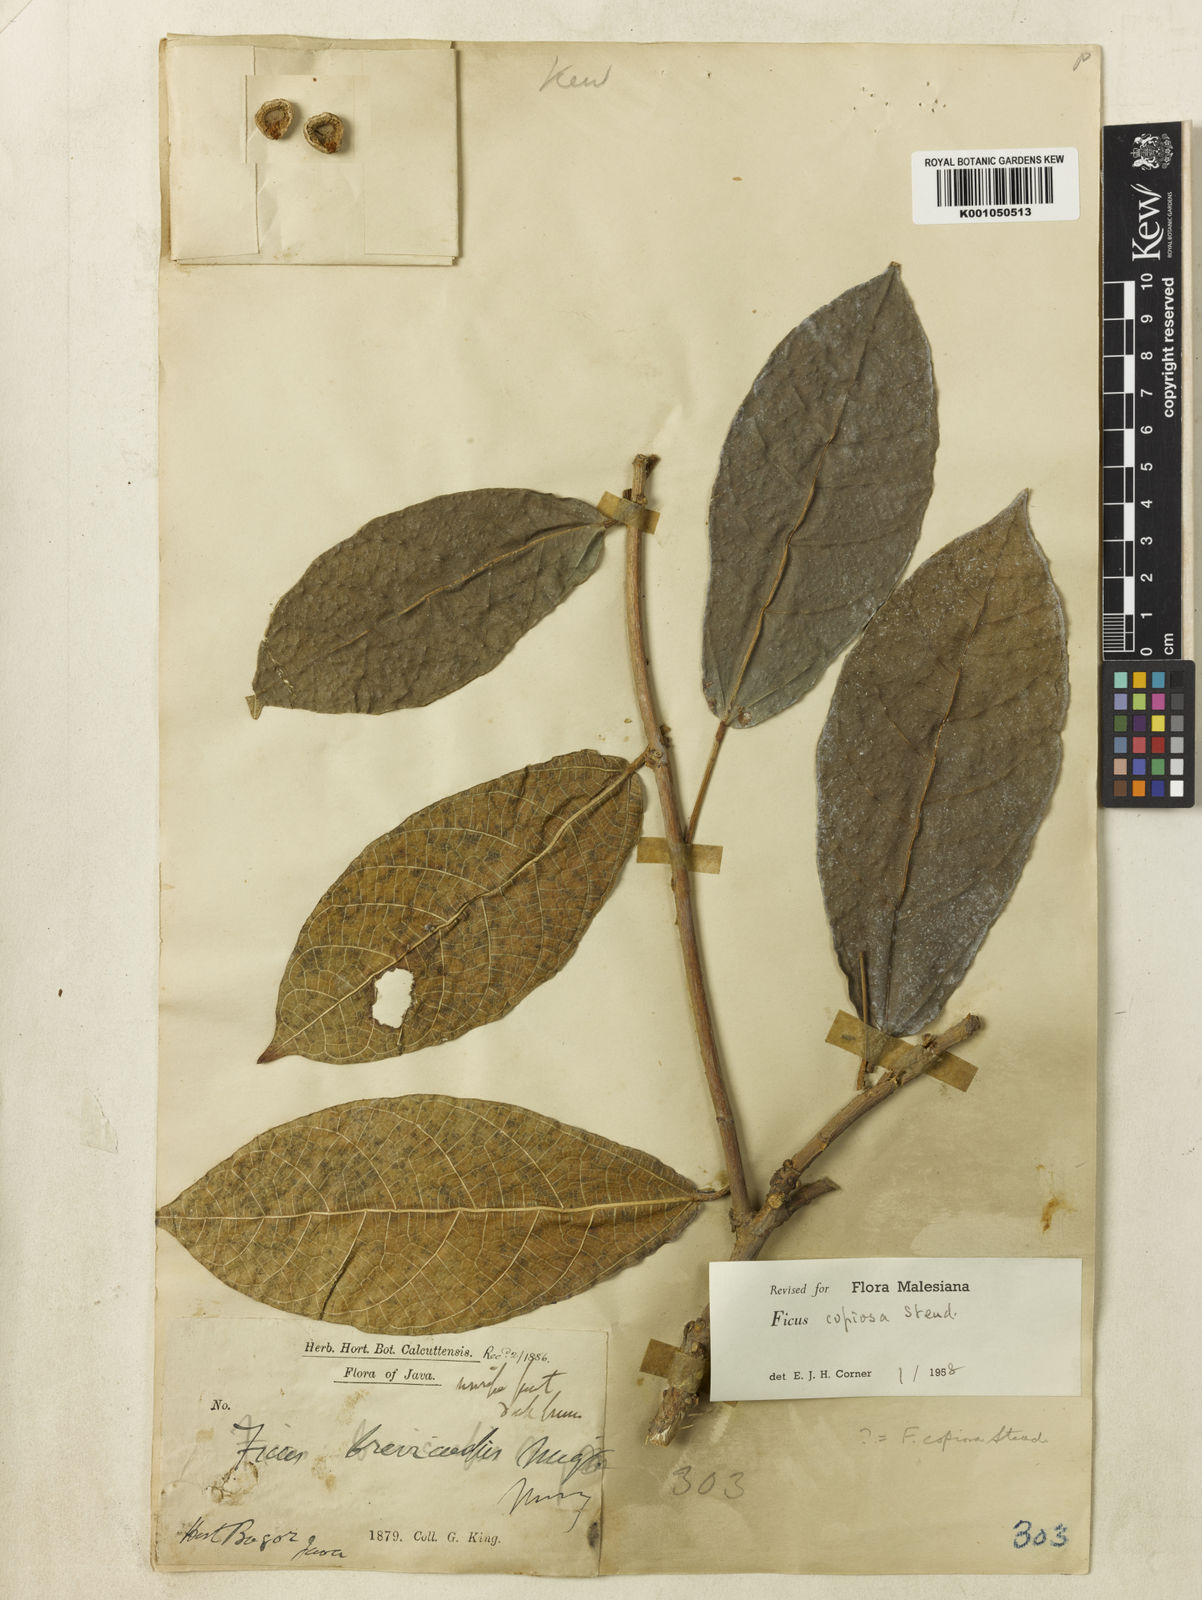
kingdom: Plantae
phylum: Tracheophyta
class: Magnoliopsida
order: Rosales
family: Moraceae
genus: Ficus
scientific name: Ficus copiosa
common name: Plentiful fig
